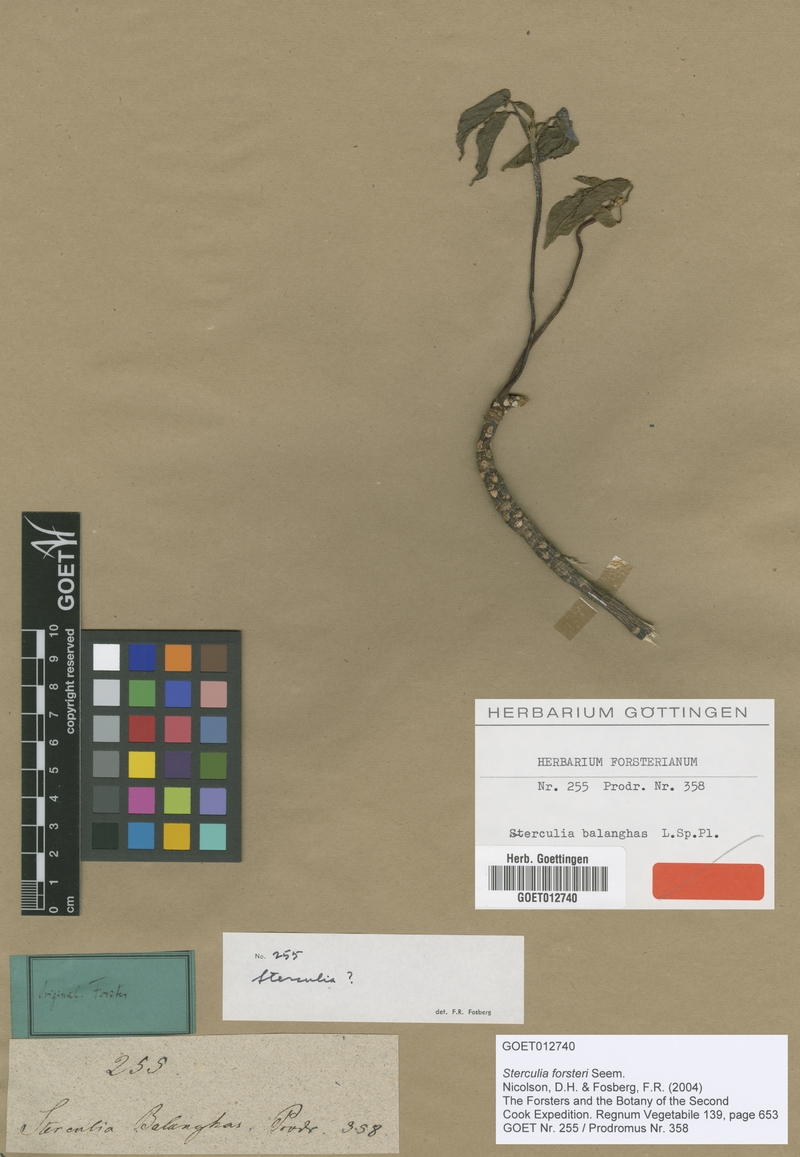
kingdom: Plantae
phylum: Tracheophyta
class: Magnoliopsida
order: Malvales
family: Malvaceae
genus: Sterculia
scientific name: Sterculia foetida
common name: Hazel sterculia
